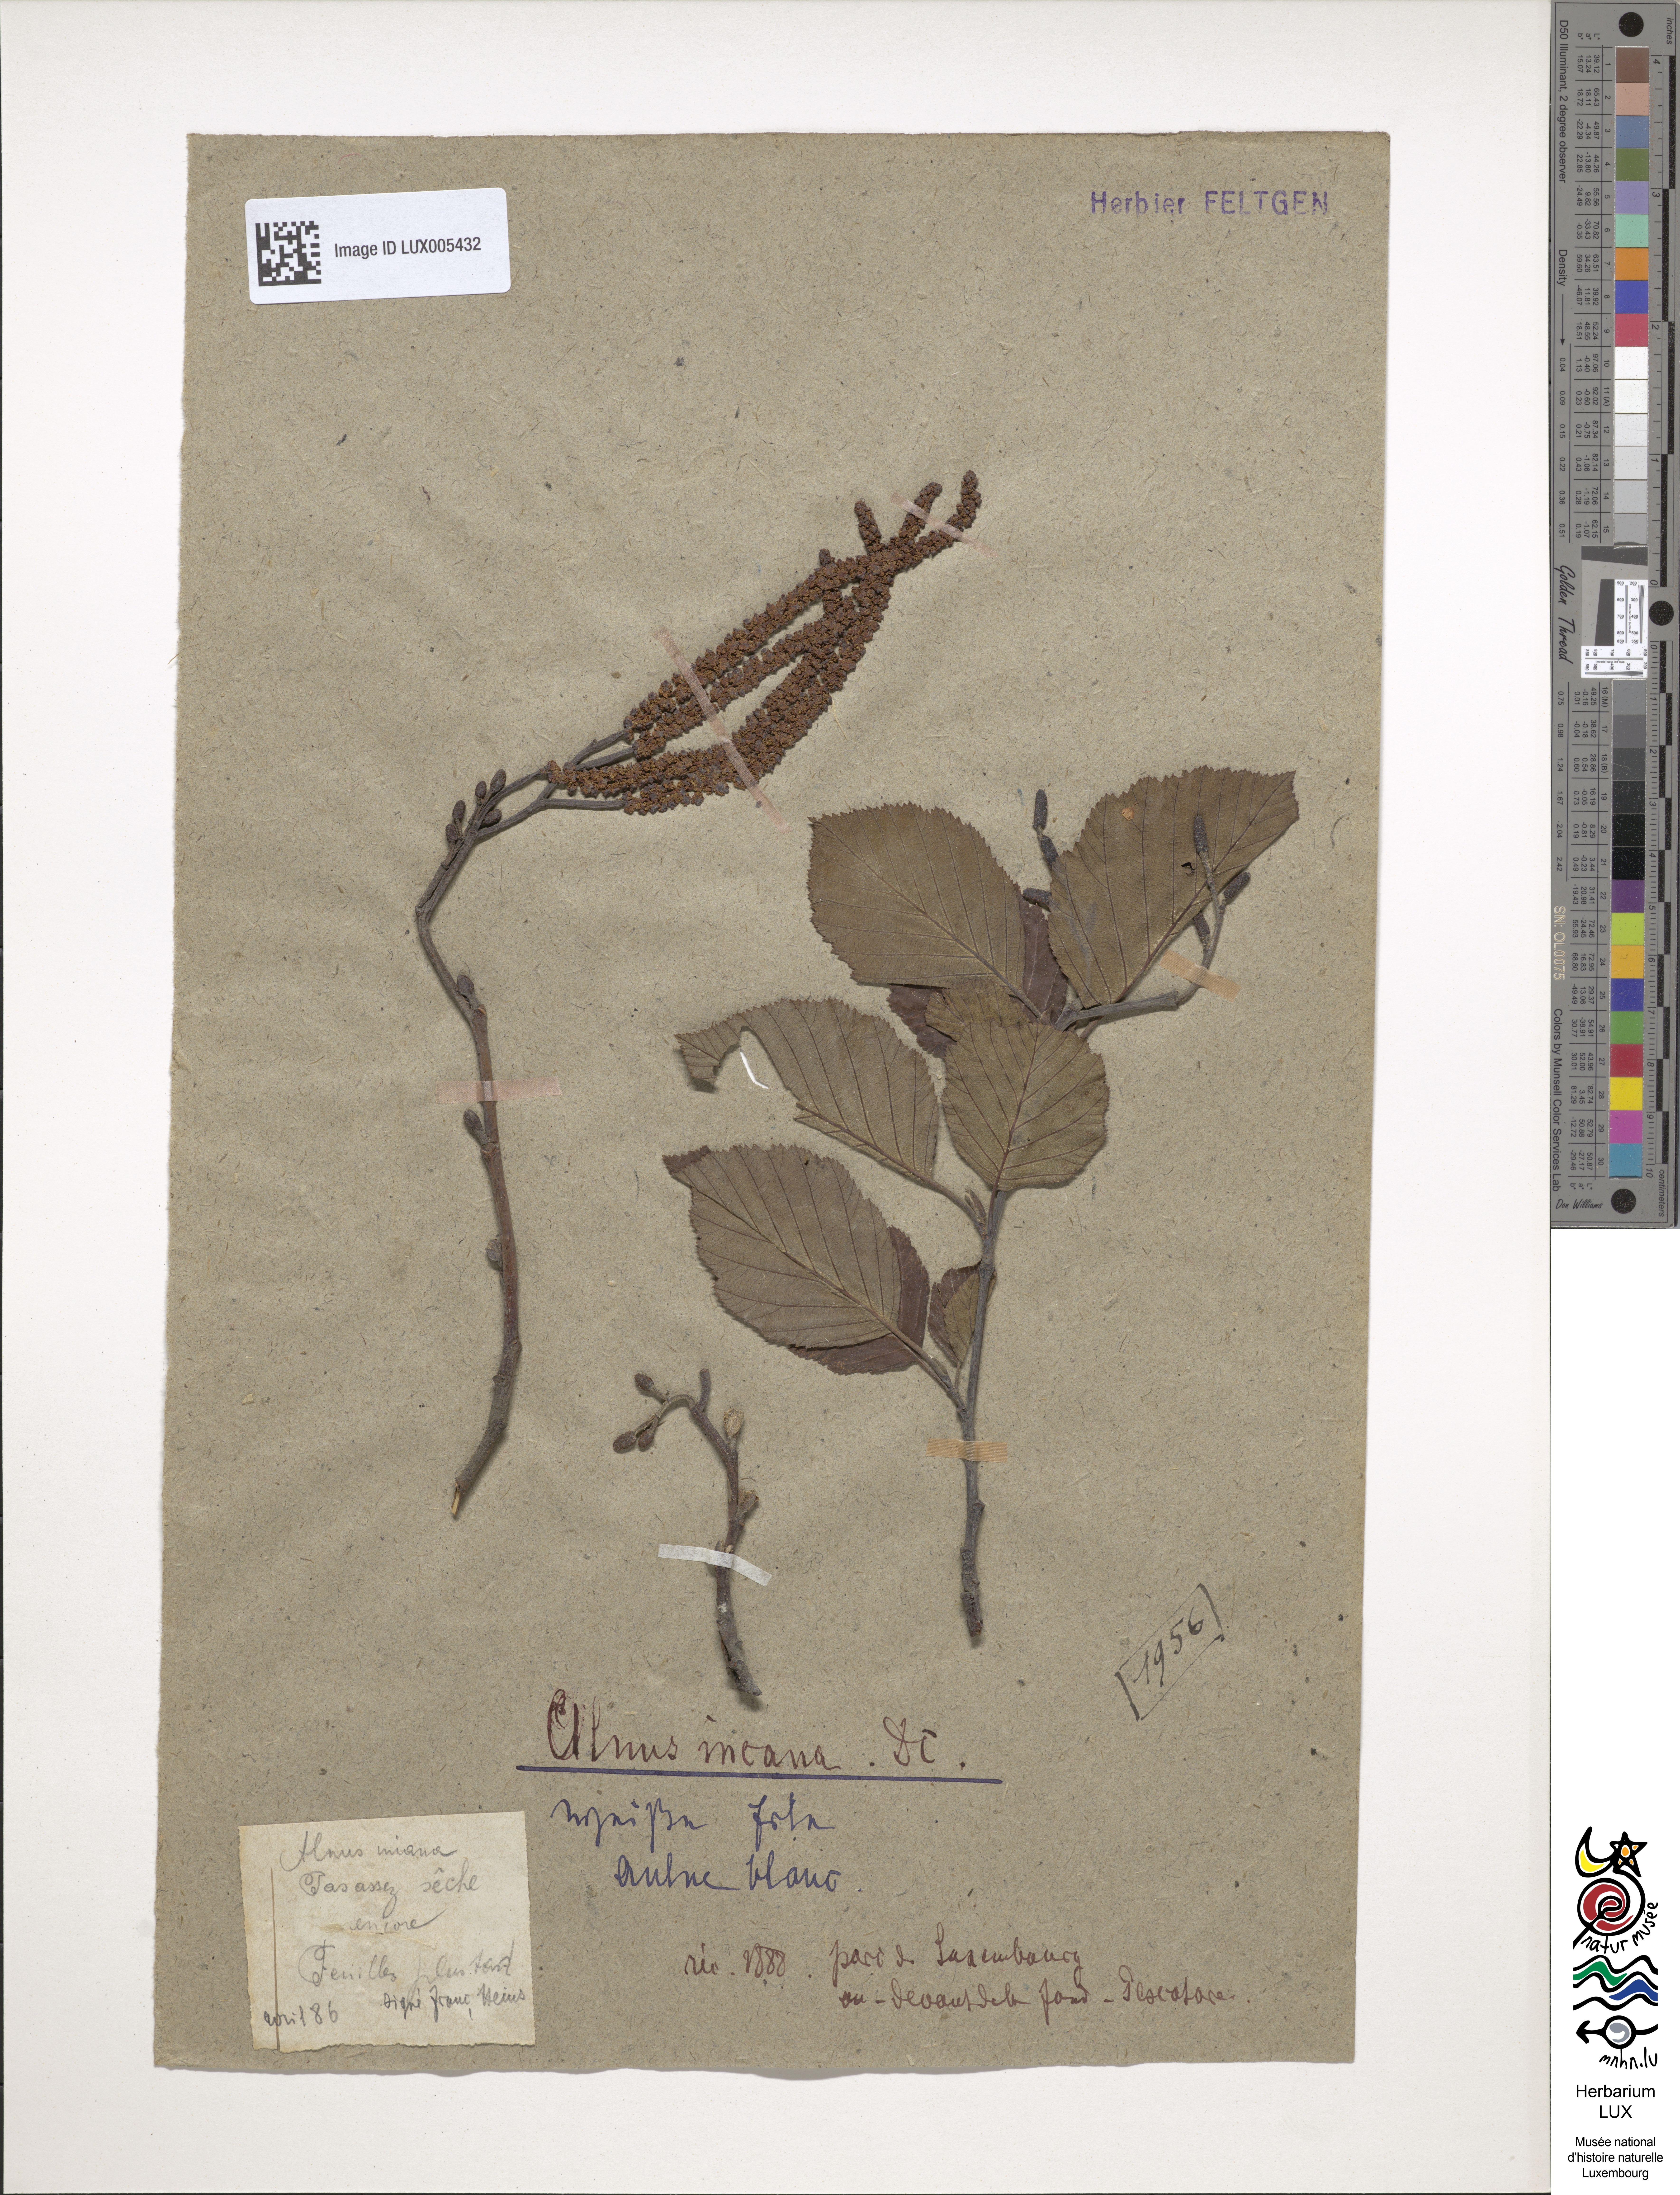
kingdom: Plantae
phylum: Tracheophyta
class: Magnoliopsida
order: Fagales
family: Betulaceae
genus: Alnus
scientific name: Alnus incana
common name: Grey alder
